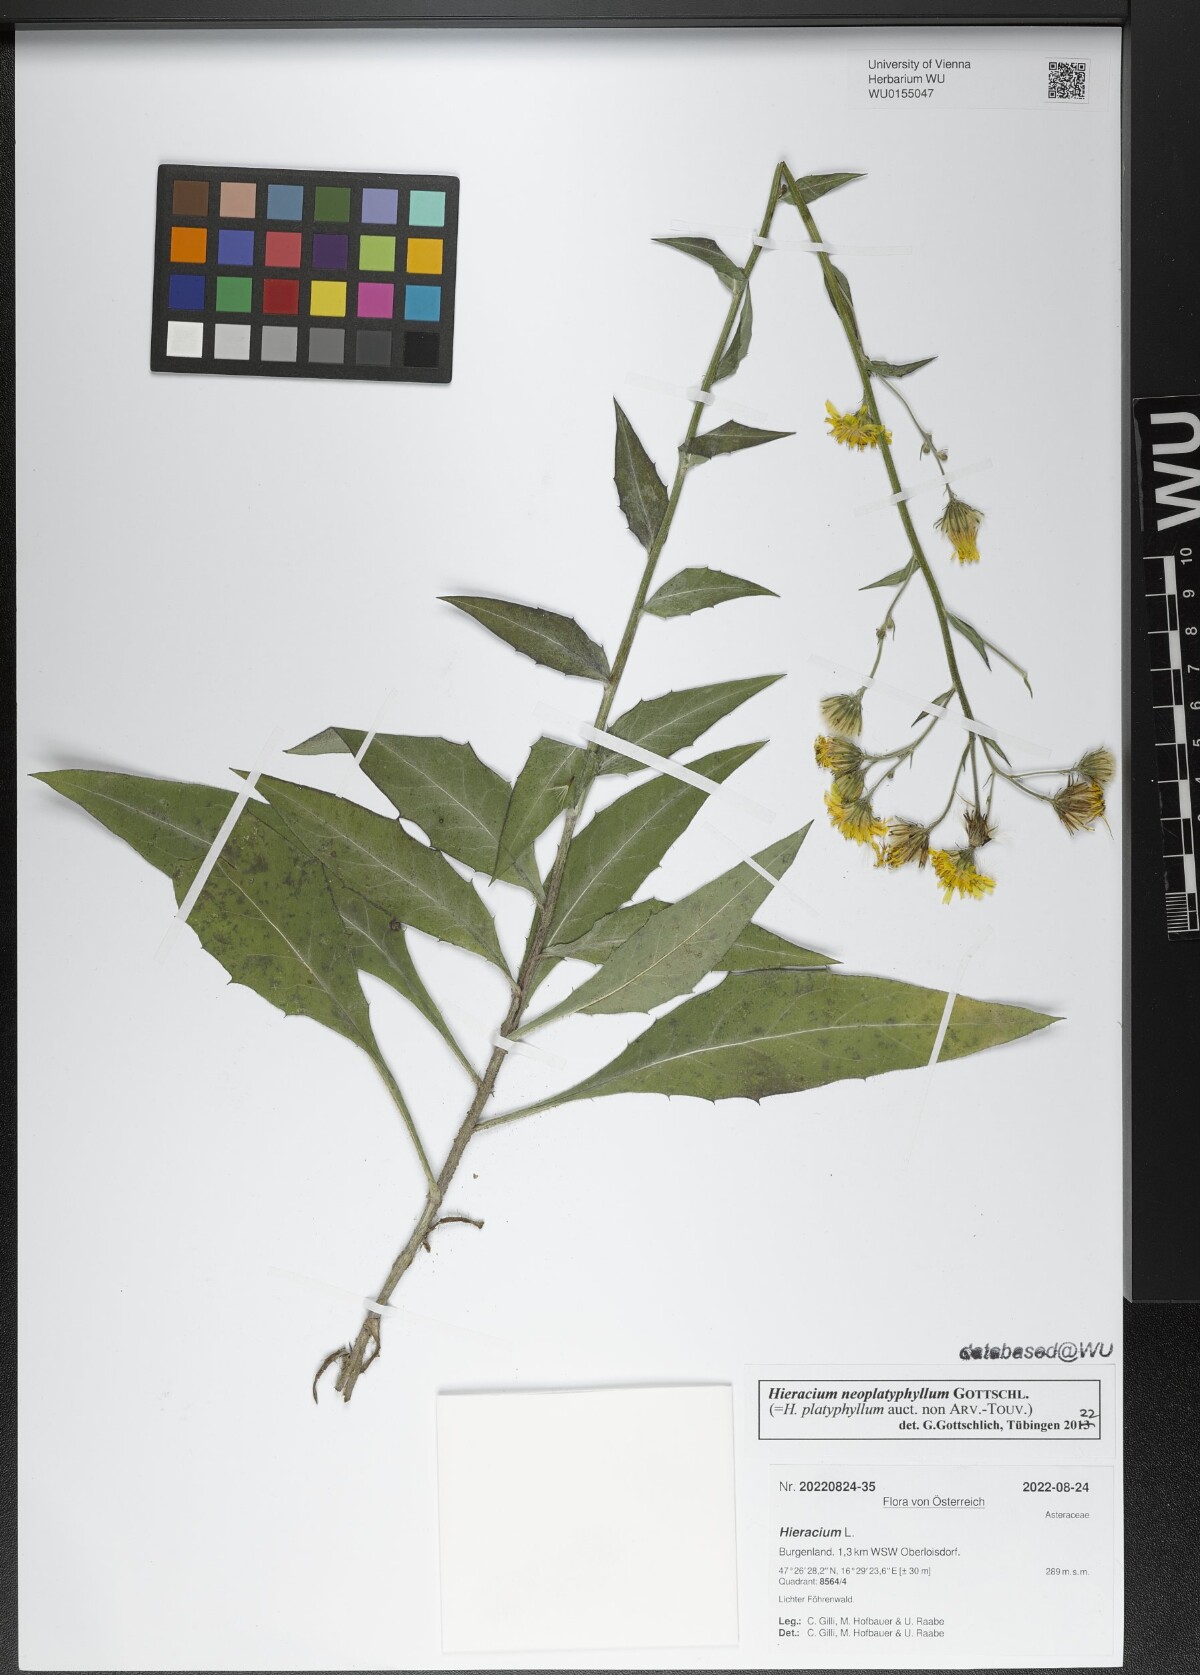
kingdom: Plantae
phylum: Tracheophyta
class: Magnoliopsida
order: Asterales
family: Asteraceae
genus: Hieracium
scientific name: Hieracium neoplatyphyllum
